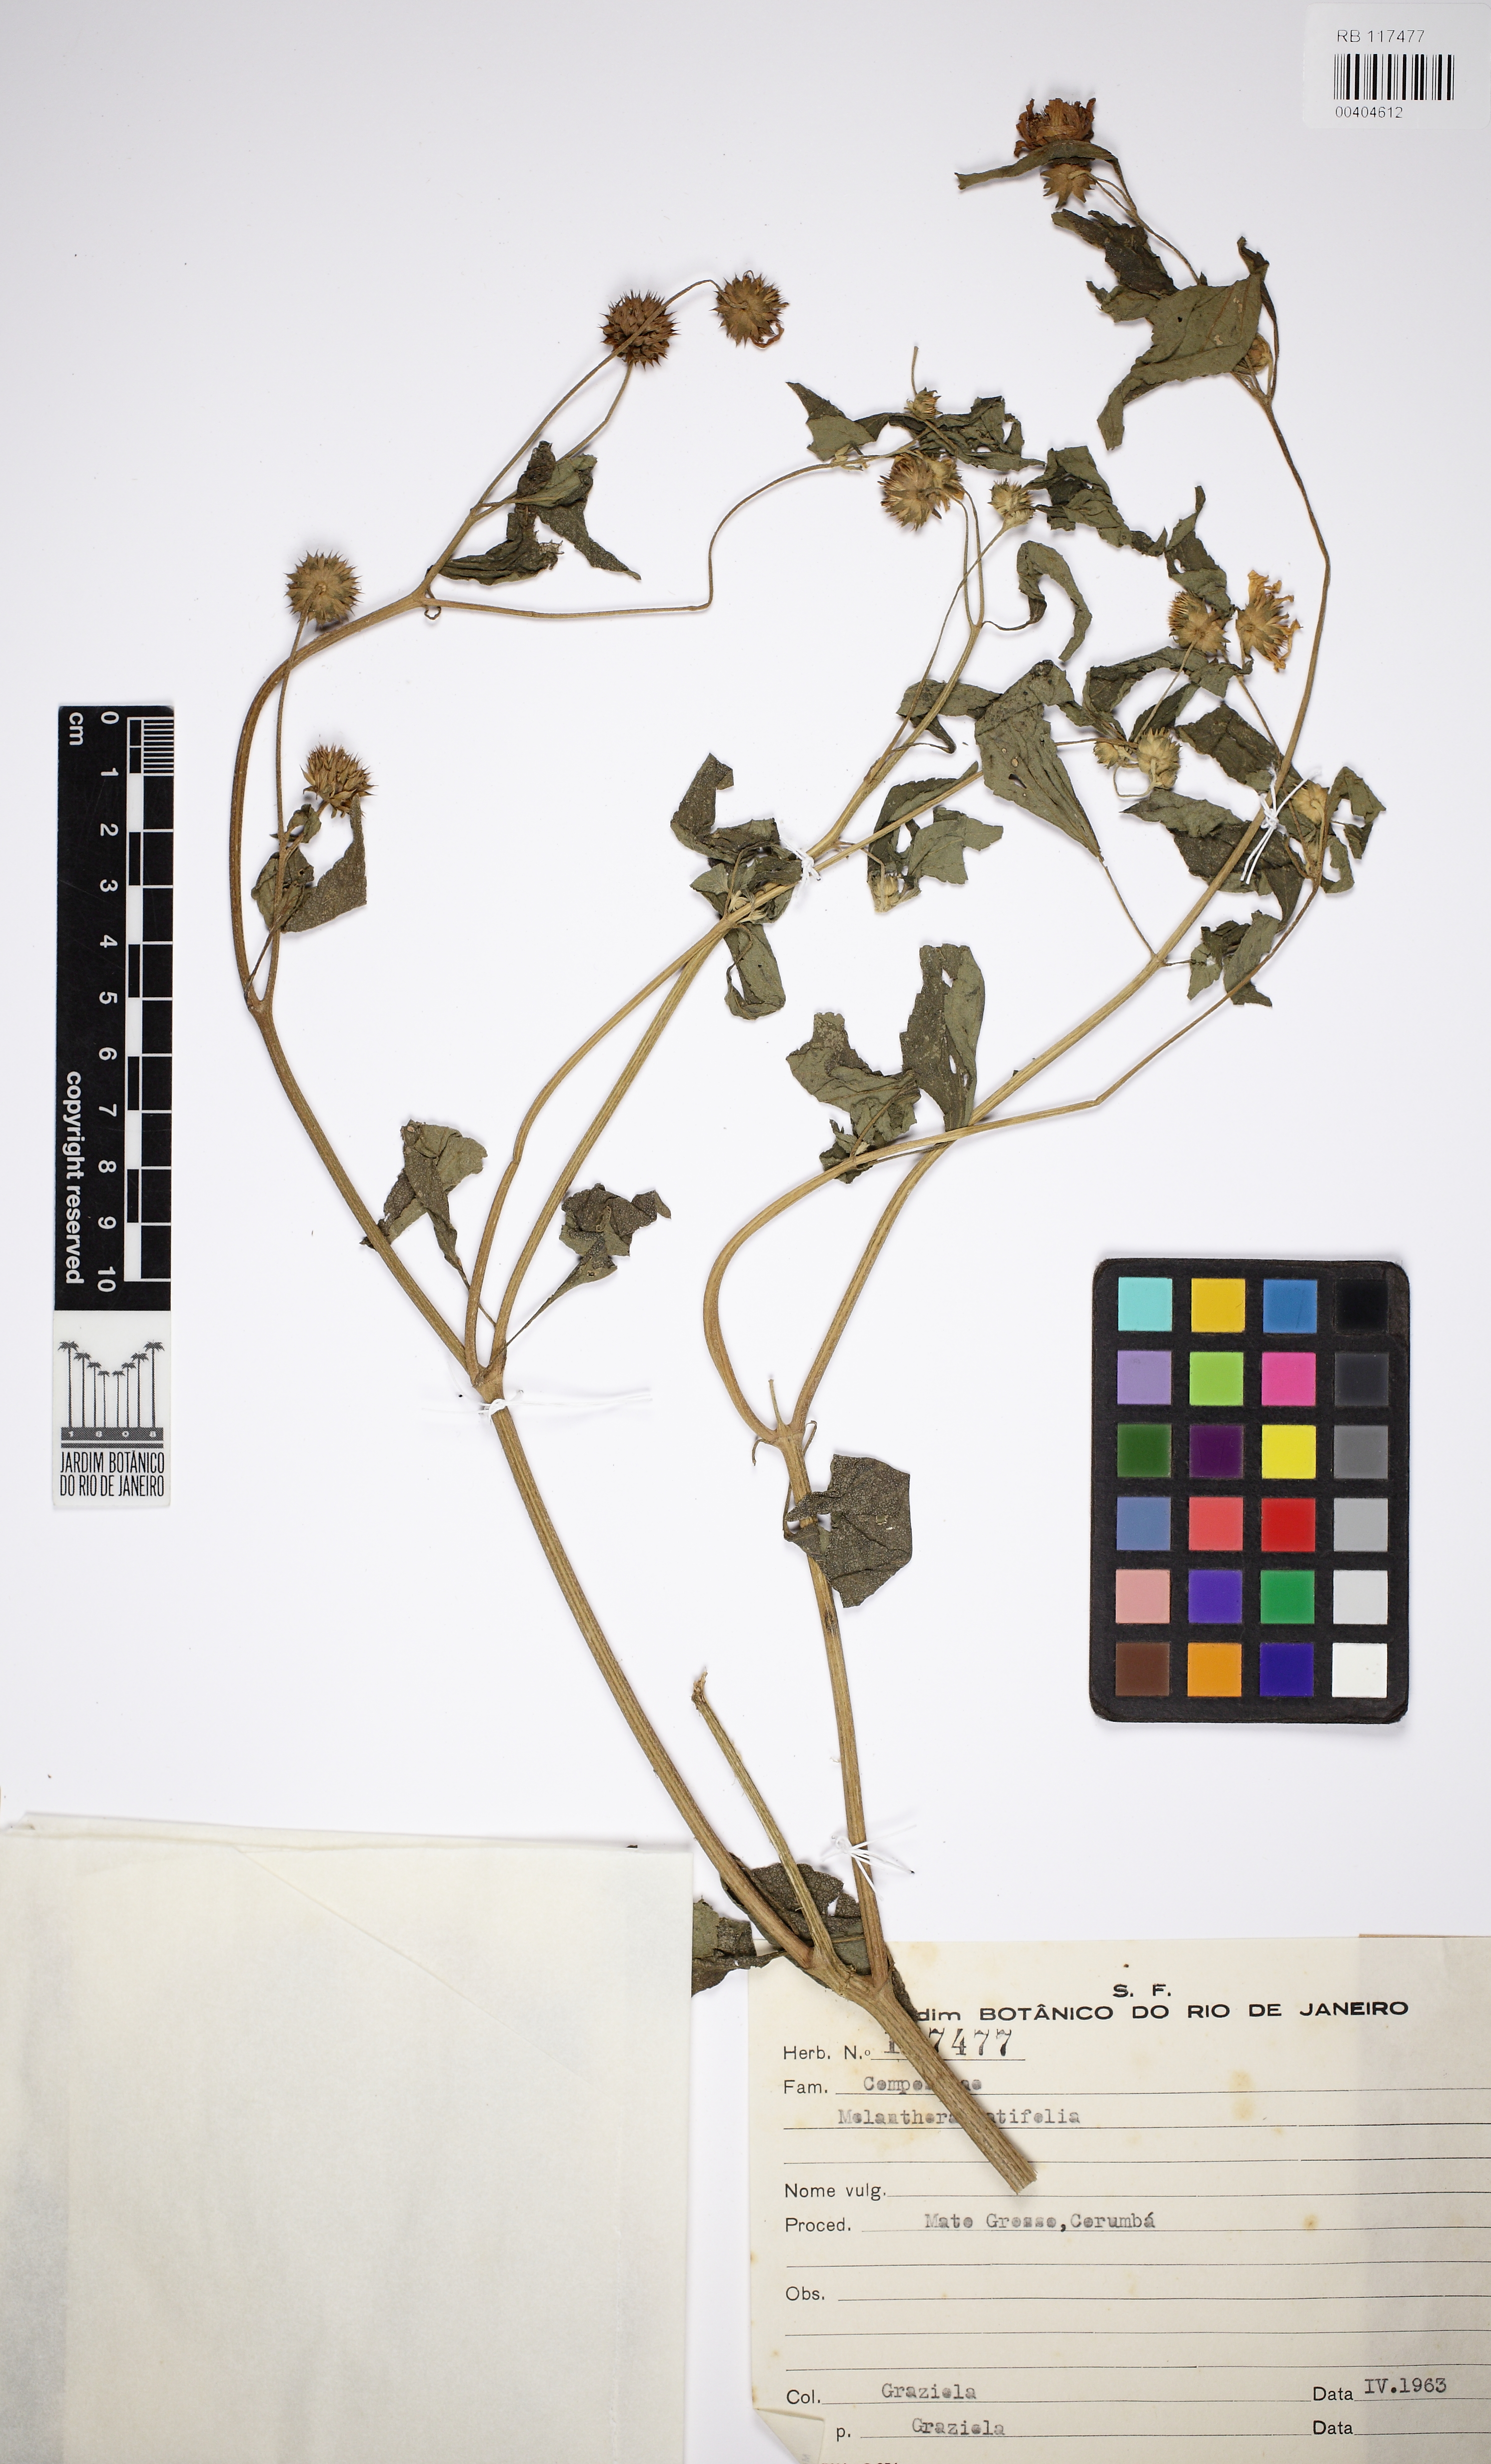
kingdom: Plantae
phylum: Tracheophyta
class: Magnoliopsida
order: Asterales
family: Asteraceae
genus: Echinocephalum
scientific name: Echinocephalum latifolium
